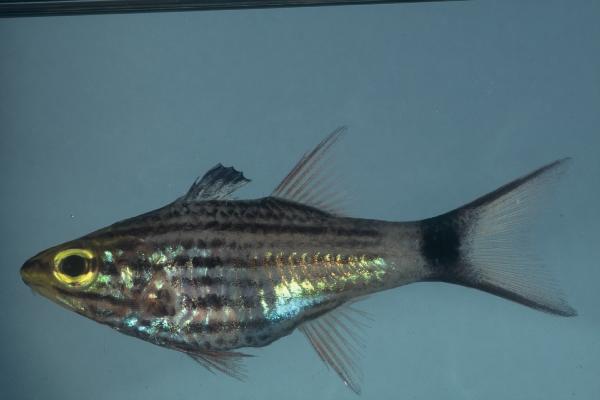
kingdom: Animalia
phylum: Chordata
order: Perciformes
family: Apogonidae
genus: Cheilodipterus
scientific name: Cheilodipterus macrodon
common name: Eight-lined cardinalfish
